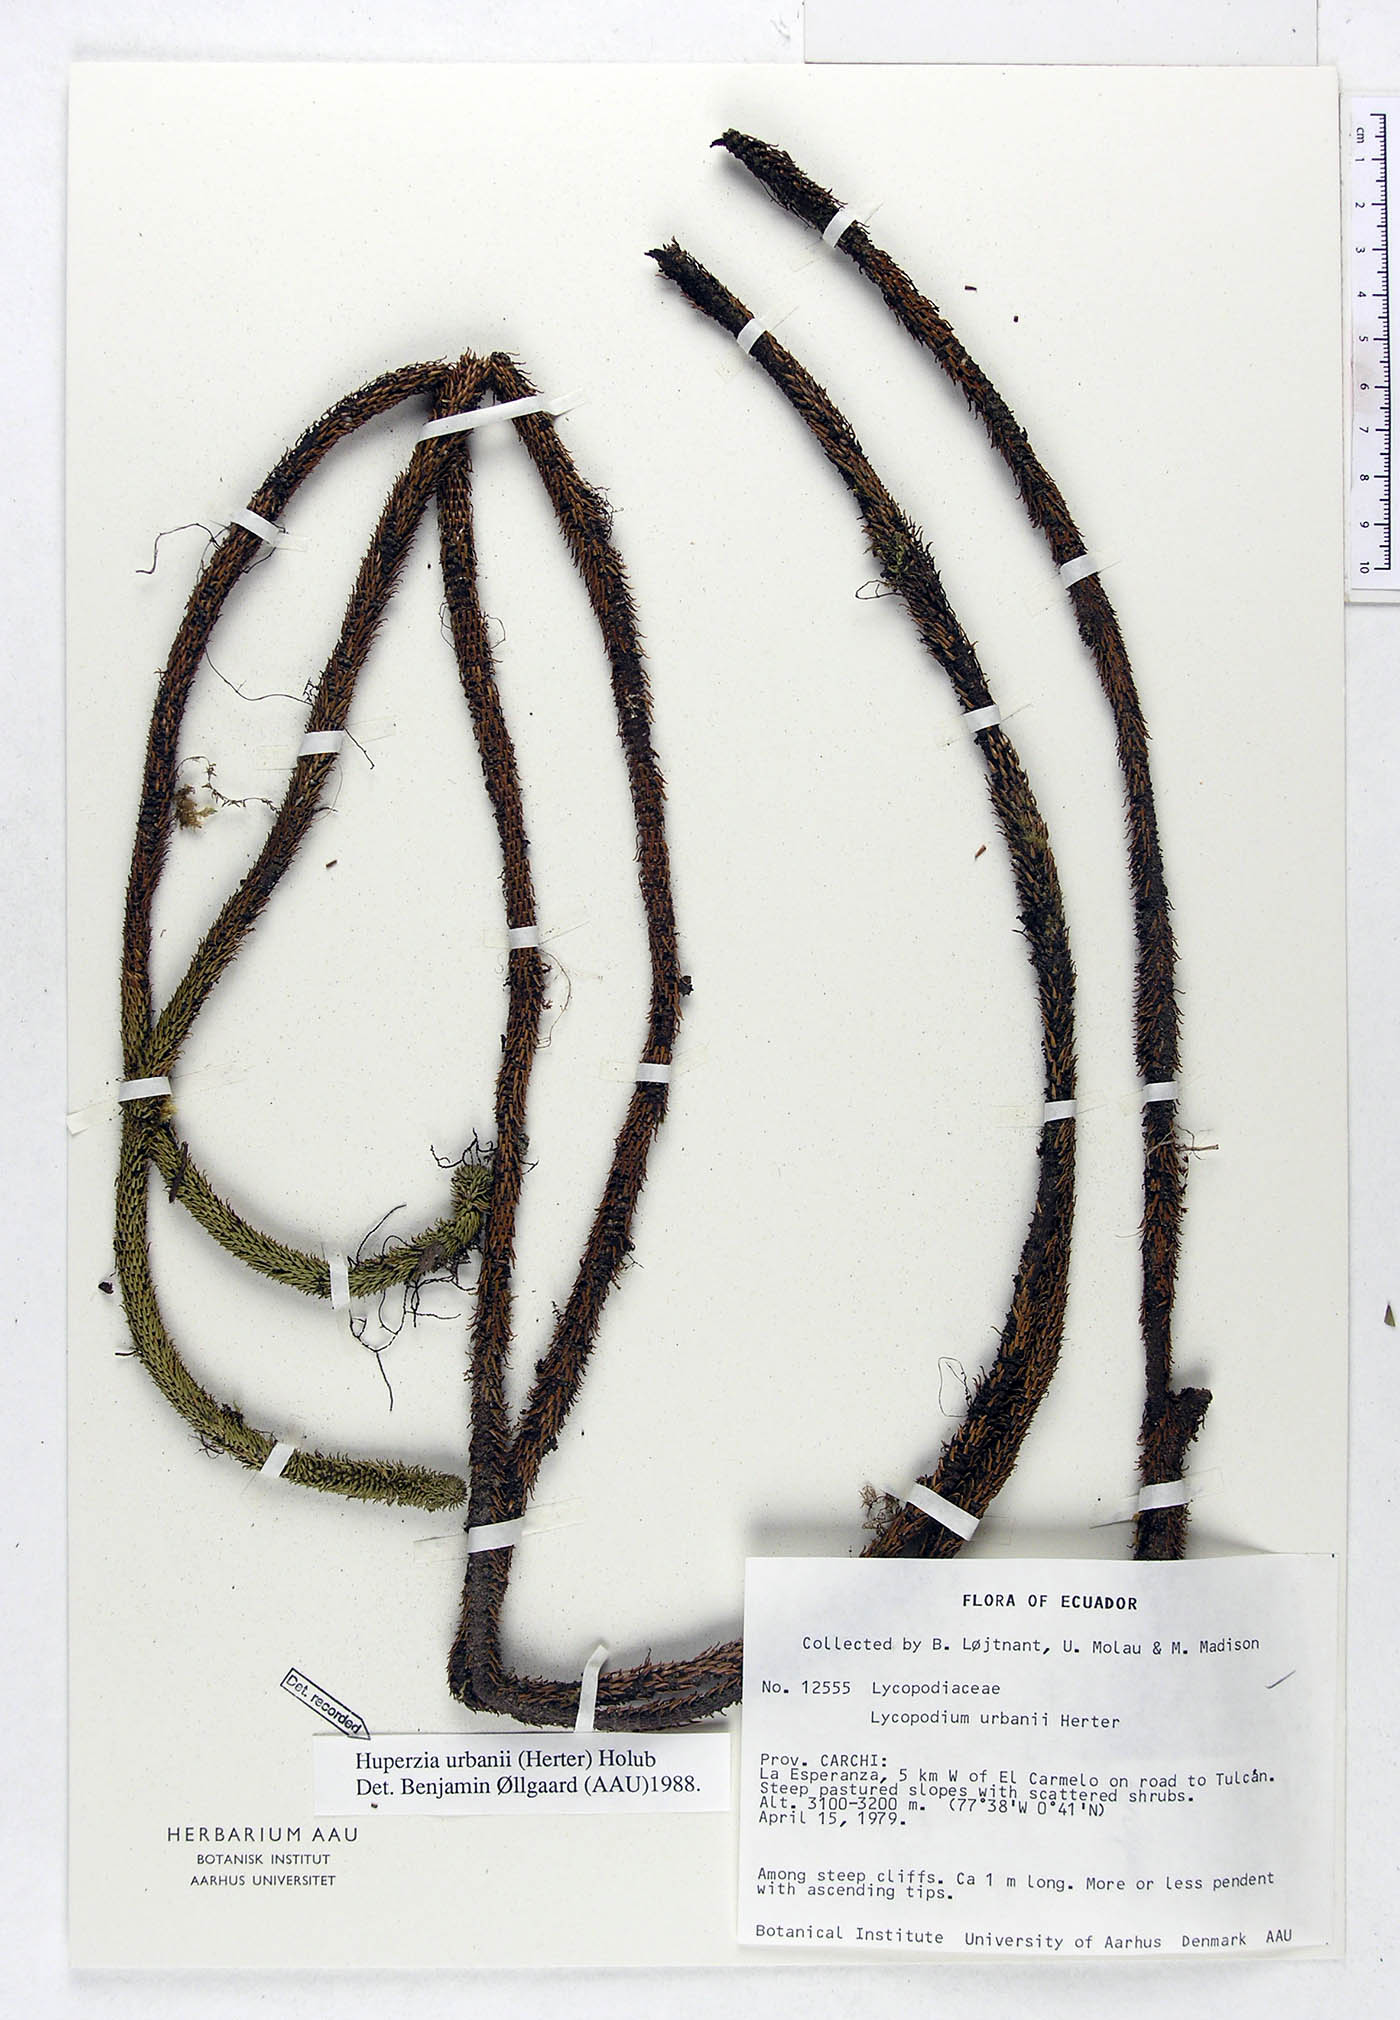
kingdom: Plantae
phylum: Tracheophyta
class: Lycopodiopsida
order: Lycopodiales
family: Lycopodiaceae
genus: Phlegmariurus
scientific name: Phlegmariurus urbanii
